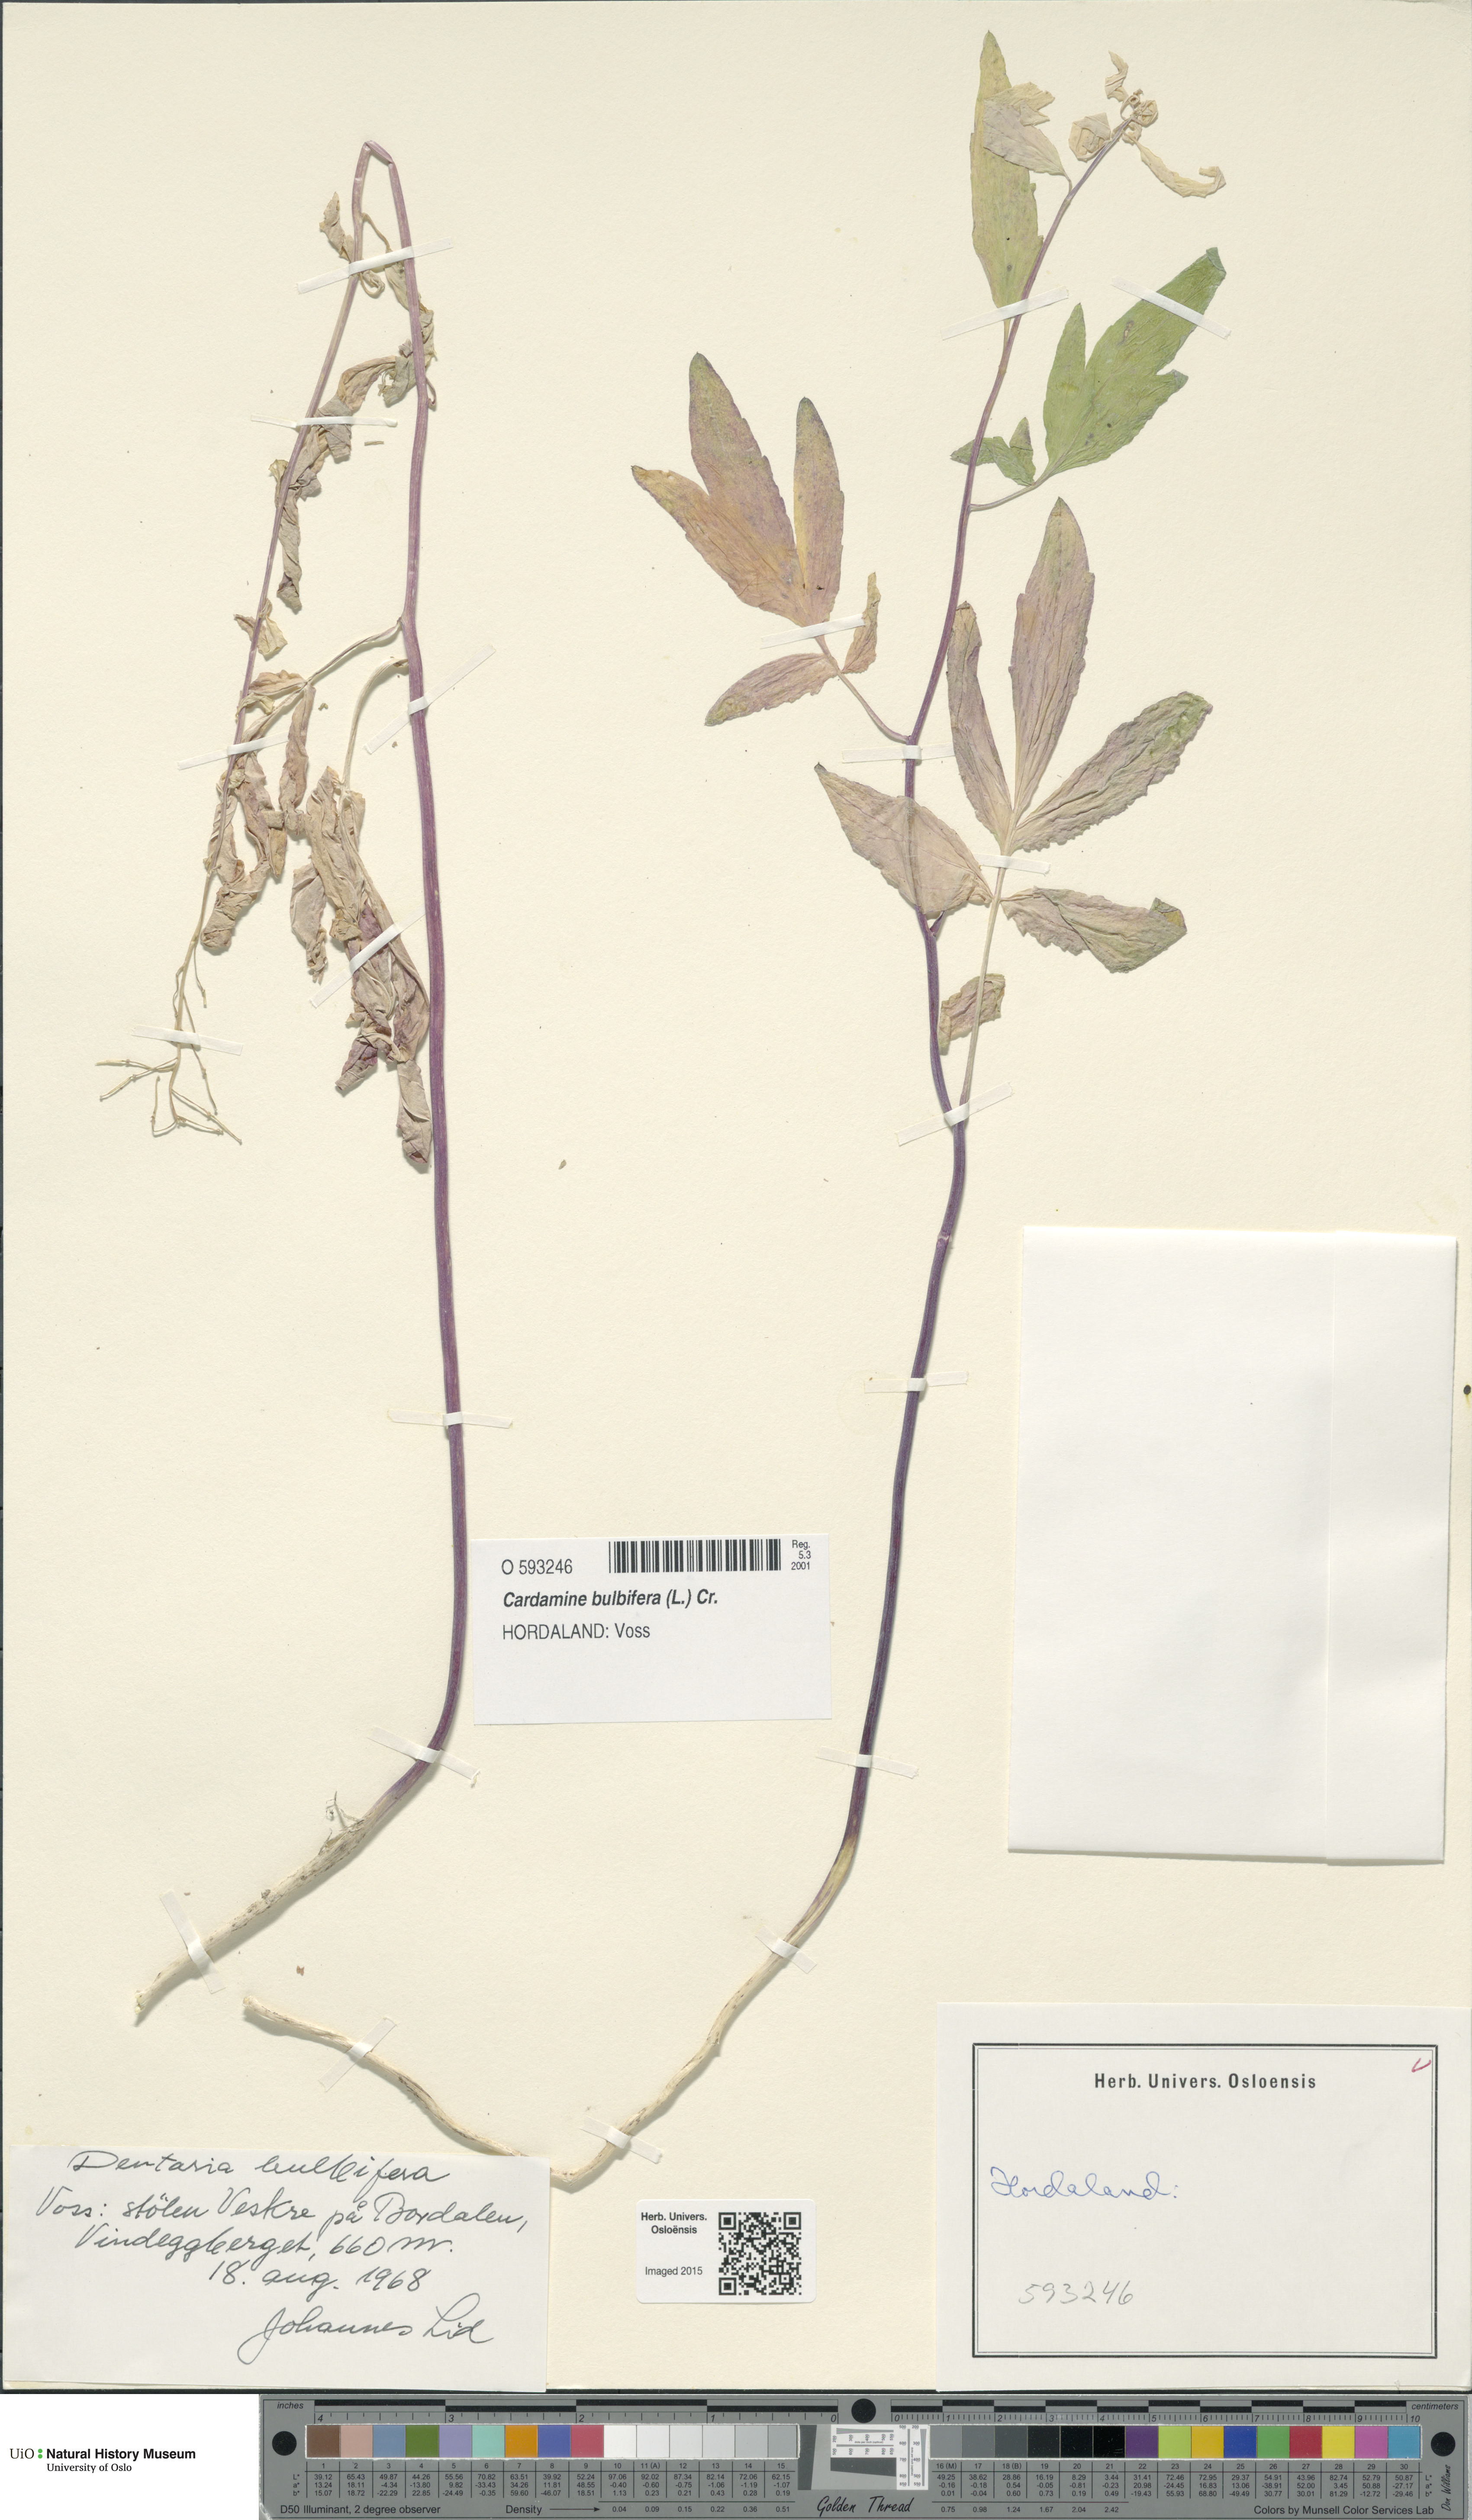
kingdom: Plantae
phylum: Tracheophyta
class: Magnoliopsida
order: Brassicales
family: Brassicaceae
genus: Cardamine
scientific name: Cardamine bulbifera
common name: Coralroot bittercress
